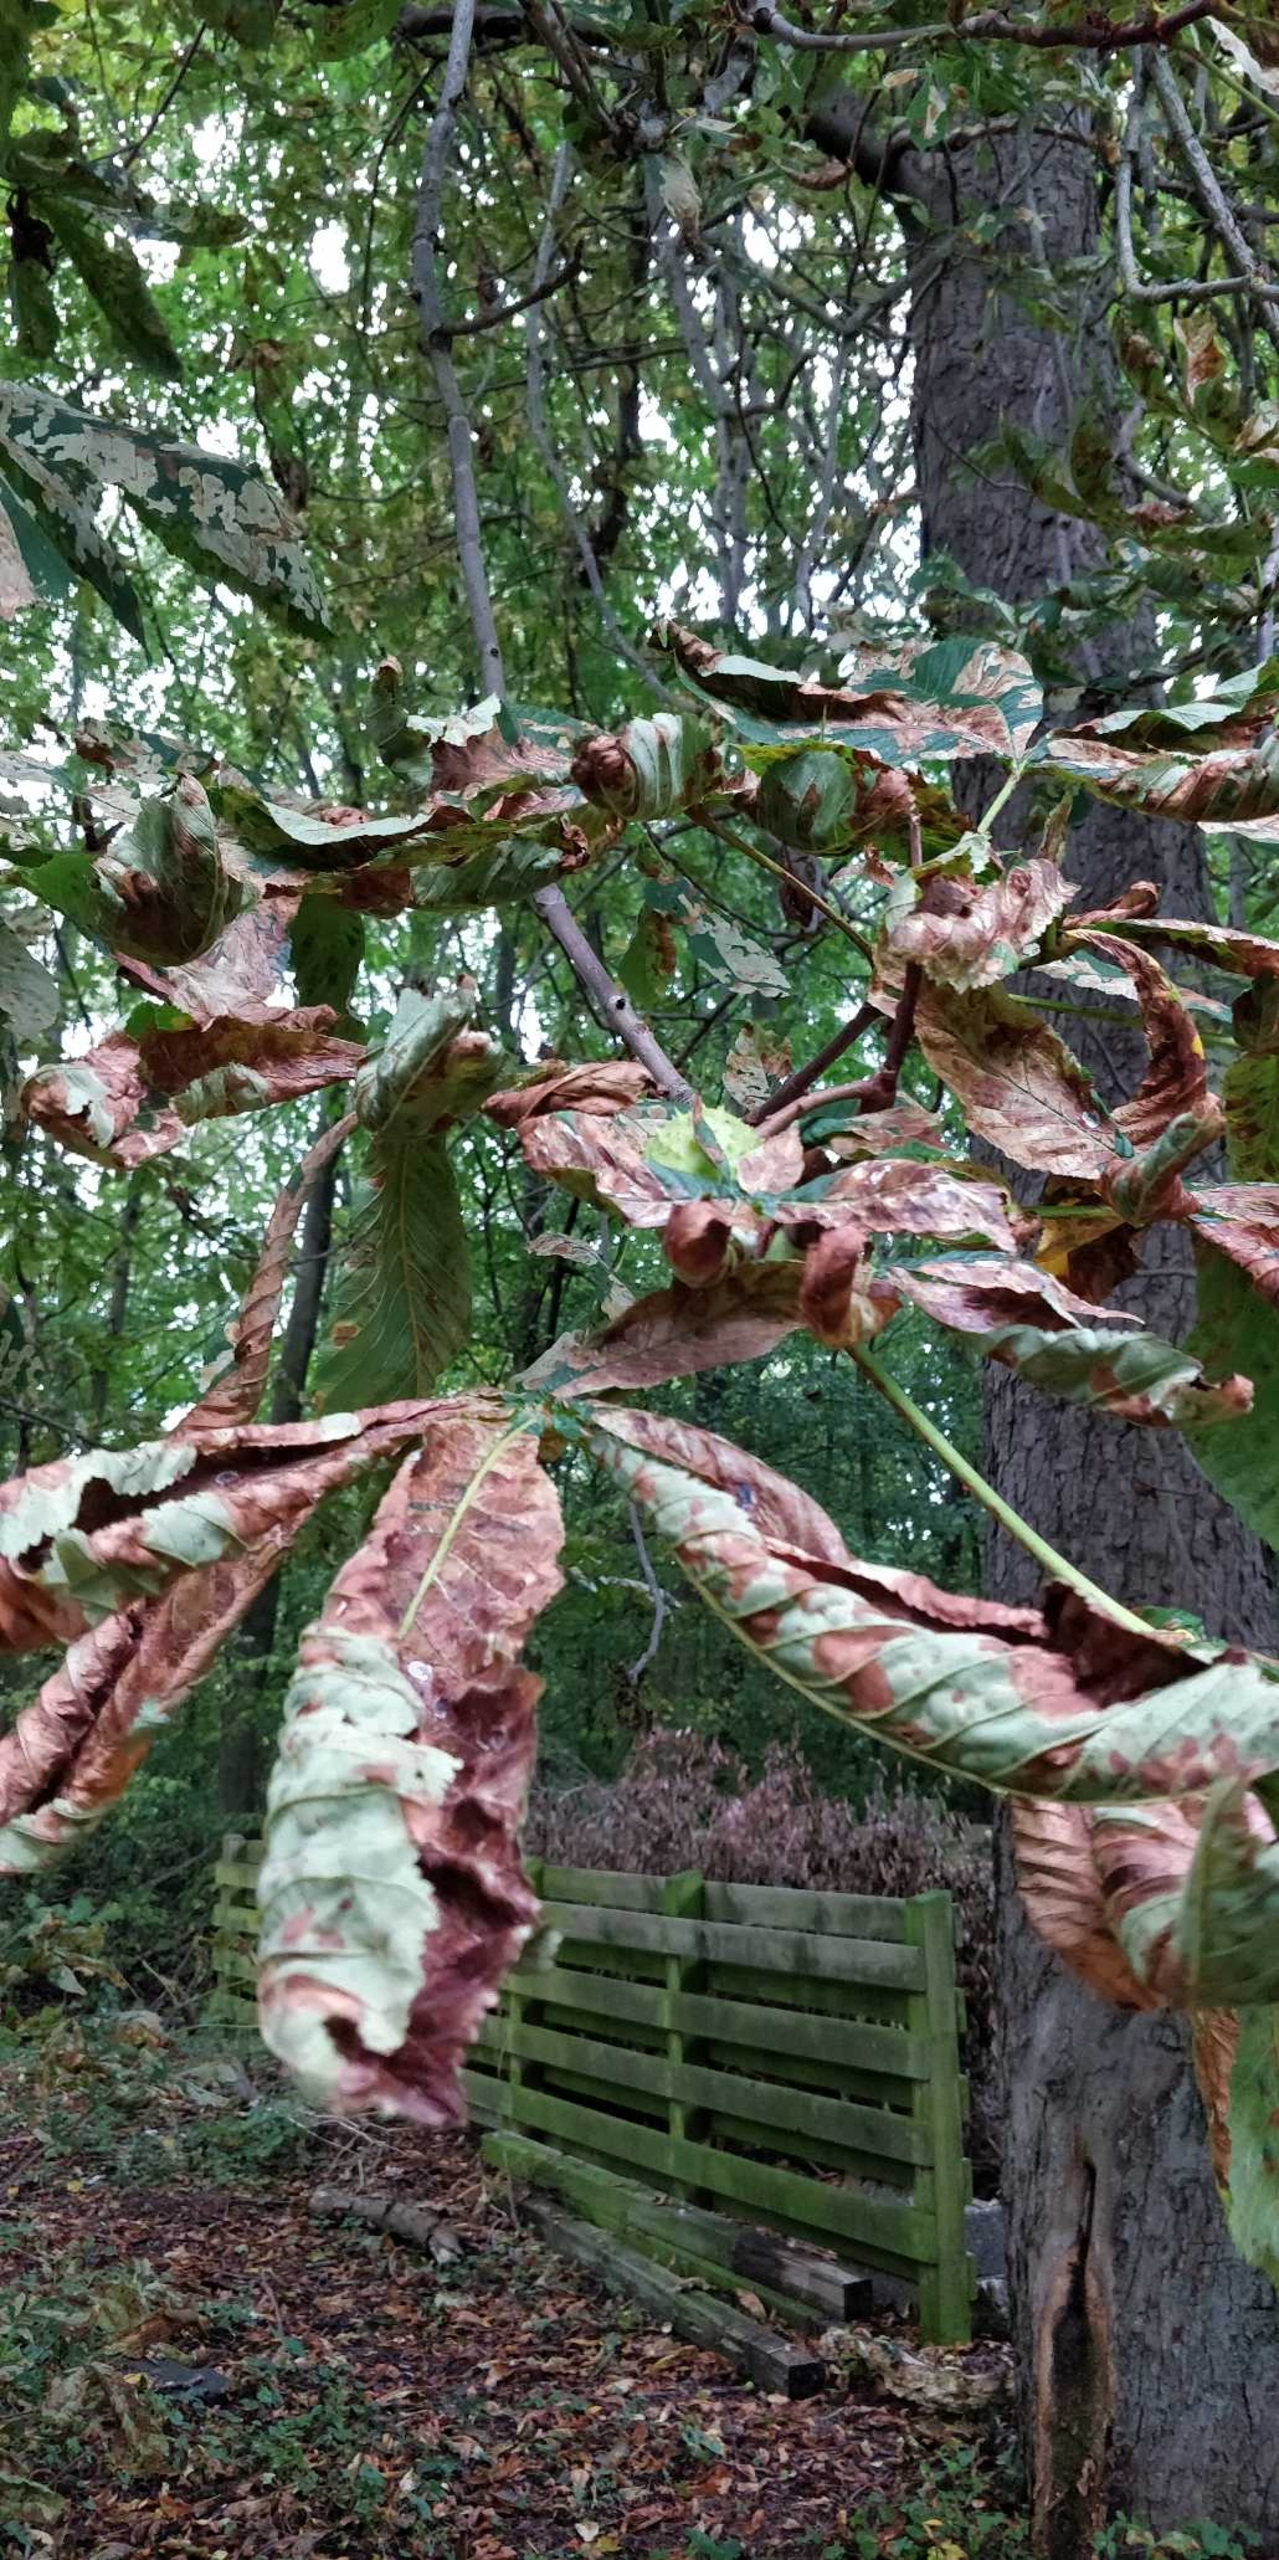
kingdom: Plantae
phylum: Tracheophyta
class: Magnoliopsida
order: Sapindales
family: Sapindaceae
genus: Aesculus
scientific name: Aesculus hippocastanum
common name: Hestekastanie
